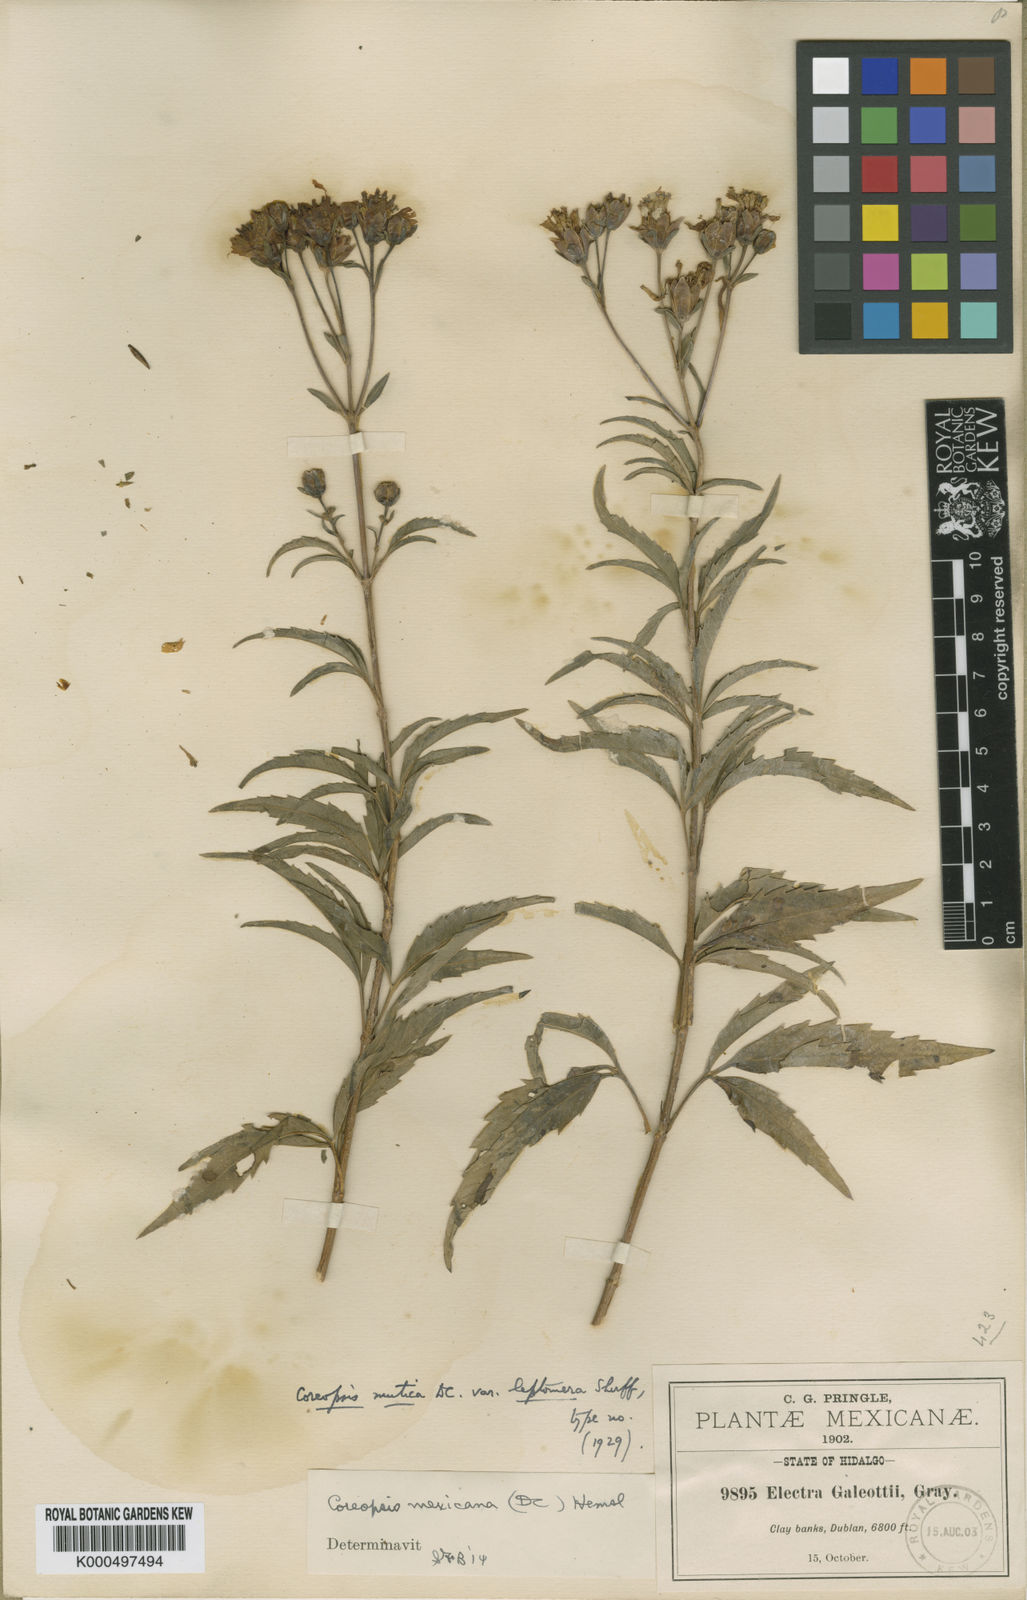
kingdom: Plantae
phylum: Tracheophyta
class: Magnoliopsida
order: Asterales
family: Asteraceae
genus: Electranthera
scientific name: Electranthera mutica
